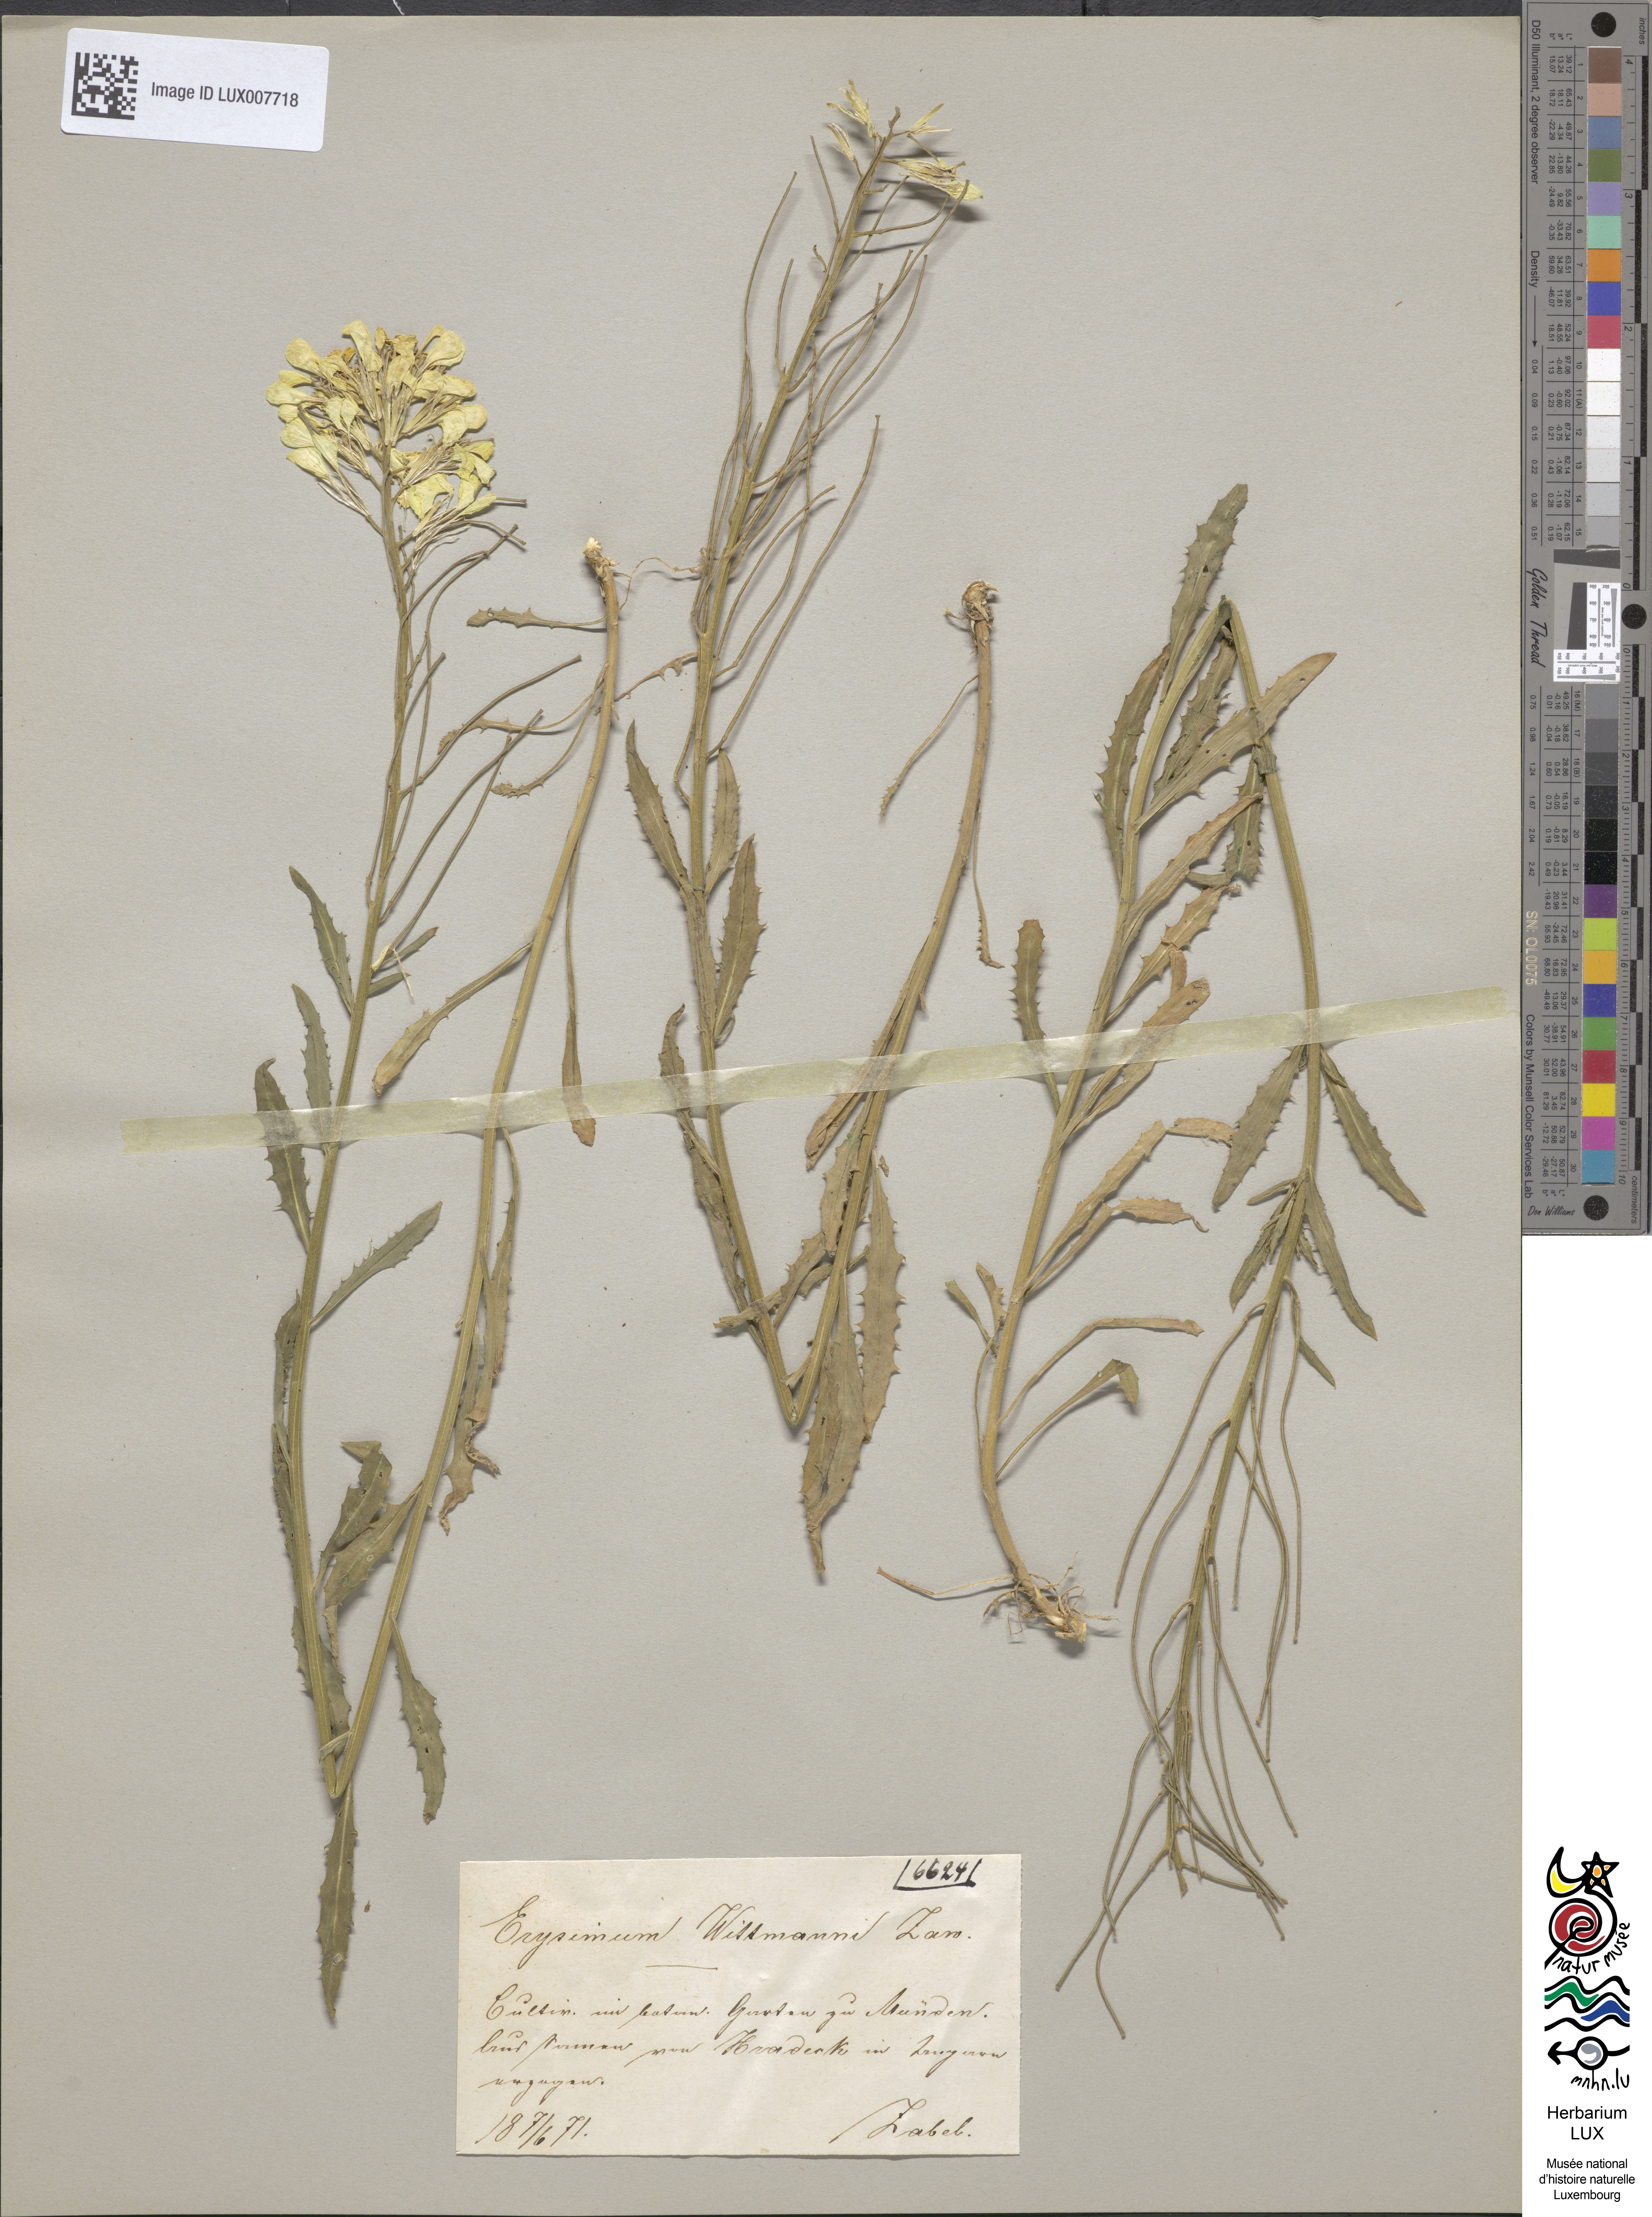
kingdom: Plantae
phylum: Tracheophyta
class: Magnoliopsida
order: Brassicales
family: Brassicaceae
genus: Erysimum
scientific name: Erysimum witmannii
